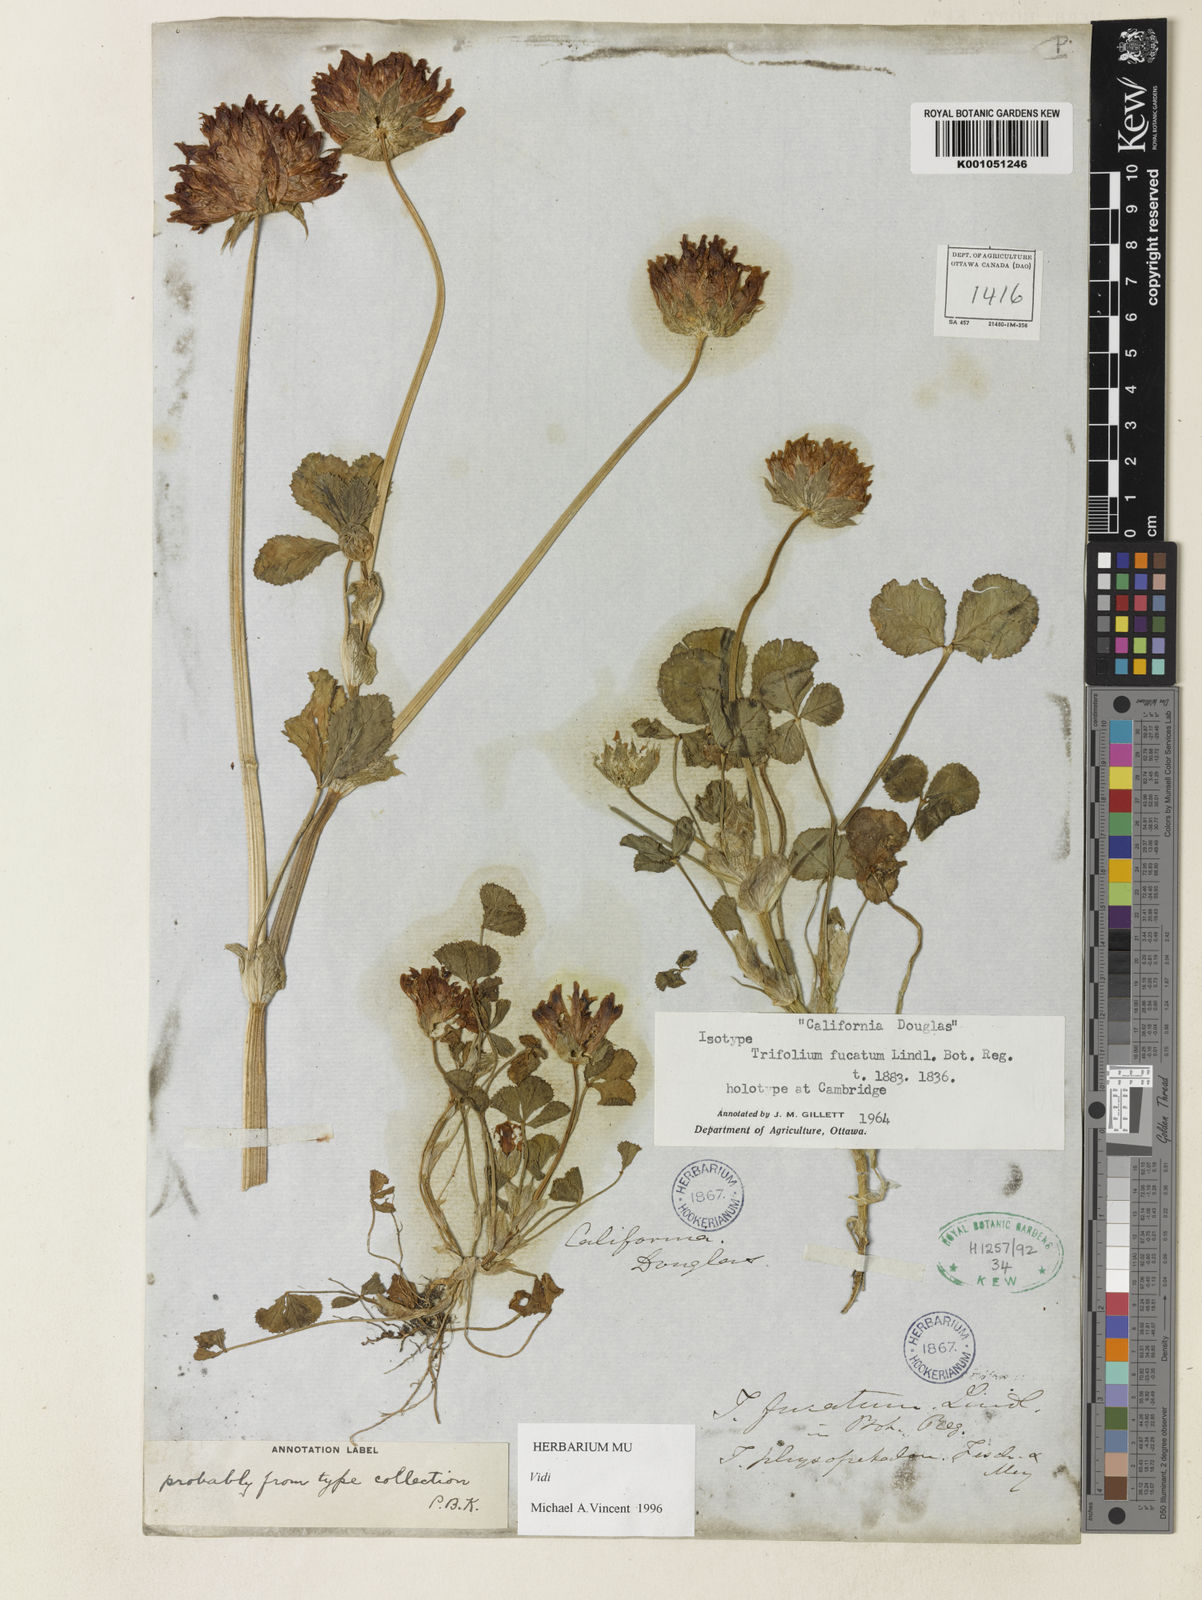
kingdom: Plantae
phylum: Tracheophyta
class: Magnoliopsida
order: Fabales
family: Fabaceae
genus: Trifolium
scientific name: Trifolium fucatum
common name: Puff clover
